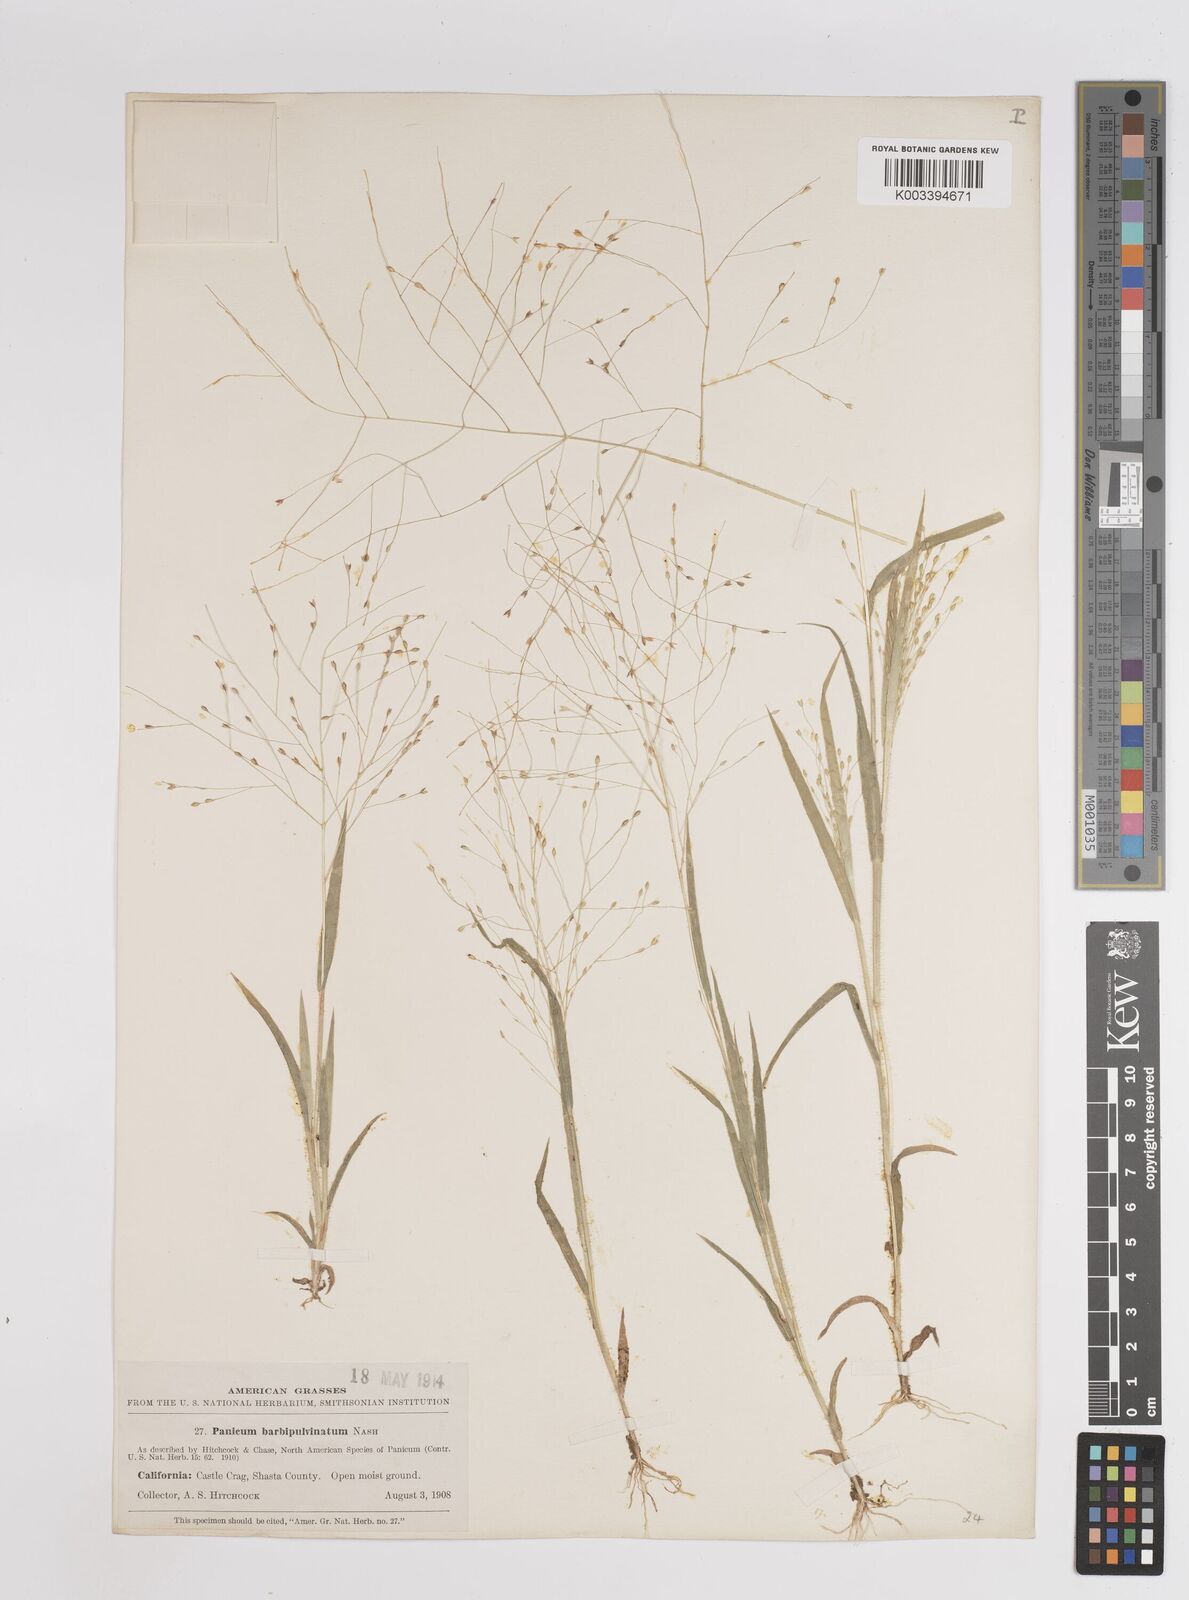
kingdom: Plantae
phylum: Tracheophyta
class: Liliopsida
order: Poales
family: Poaceae
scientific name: Poaceae
